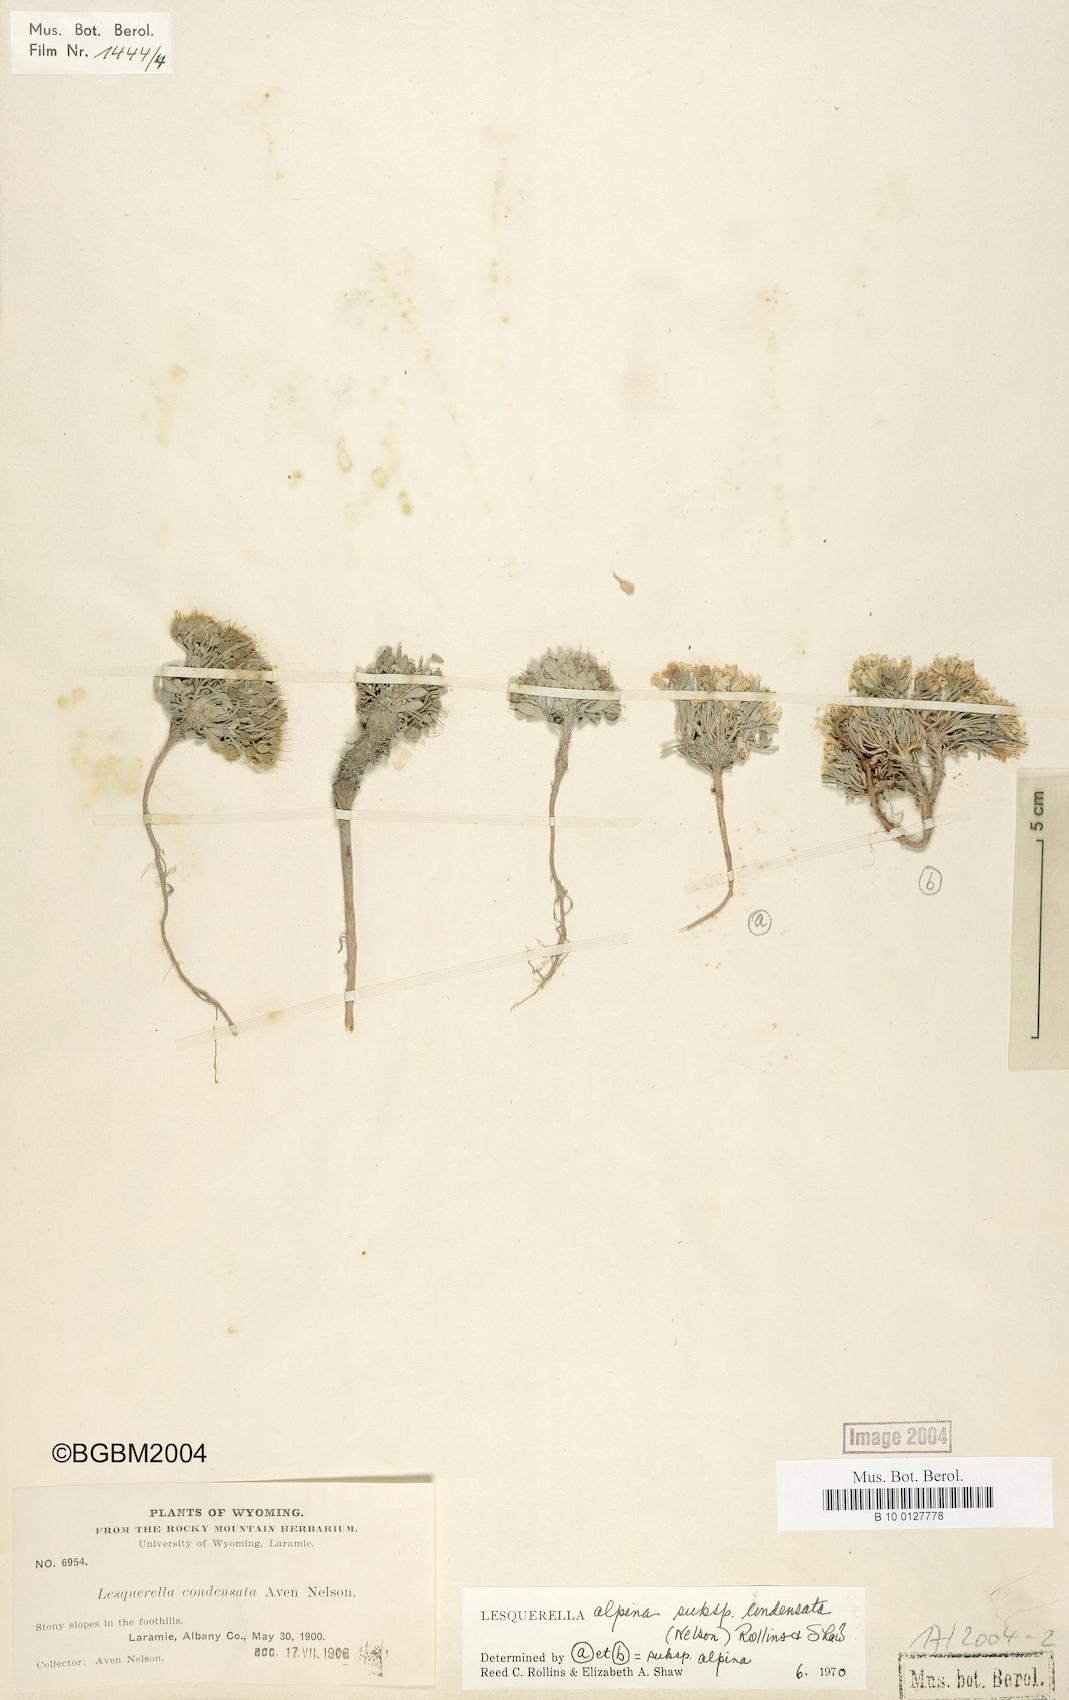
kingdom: Plantae
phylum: Tracheophyta
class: Magnoliopsida
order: Brassicales
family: Brassicaceae
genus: Physaria
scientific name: Physaria reediana
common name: Rollins's bladderpod
